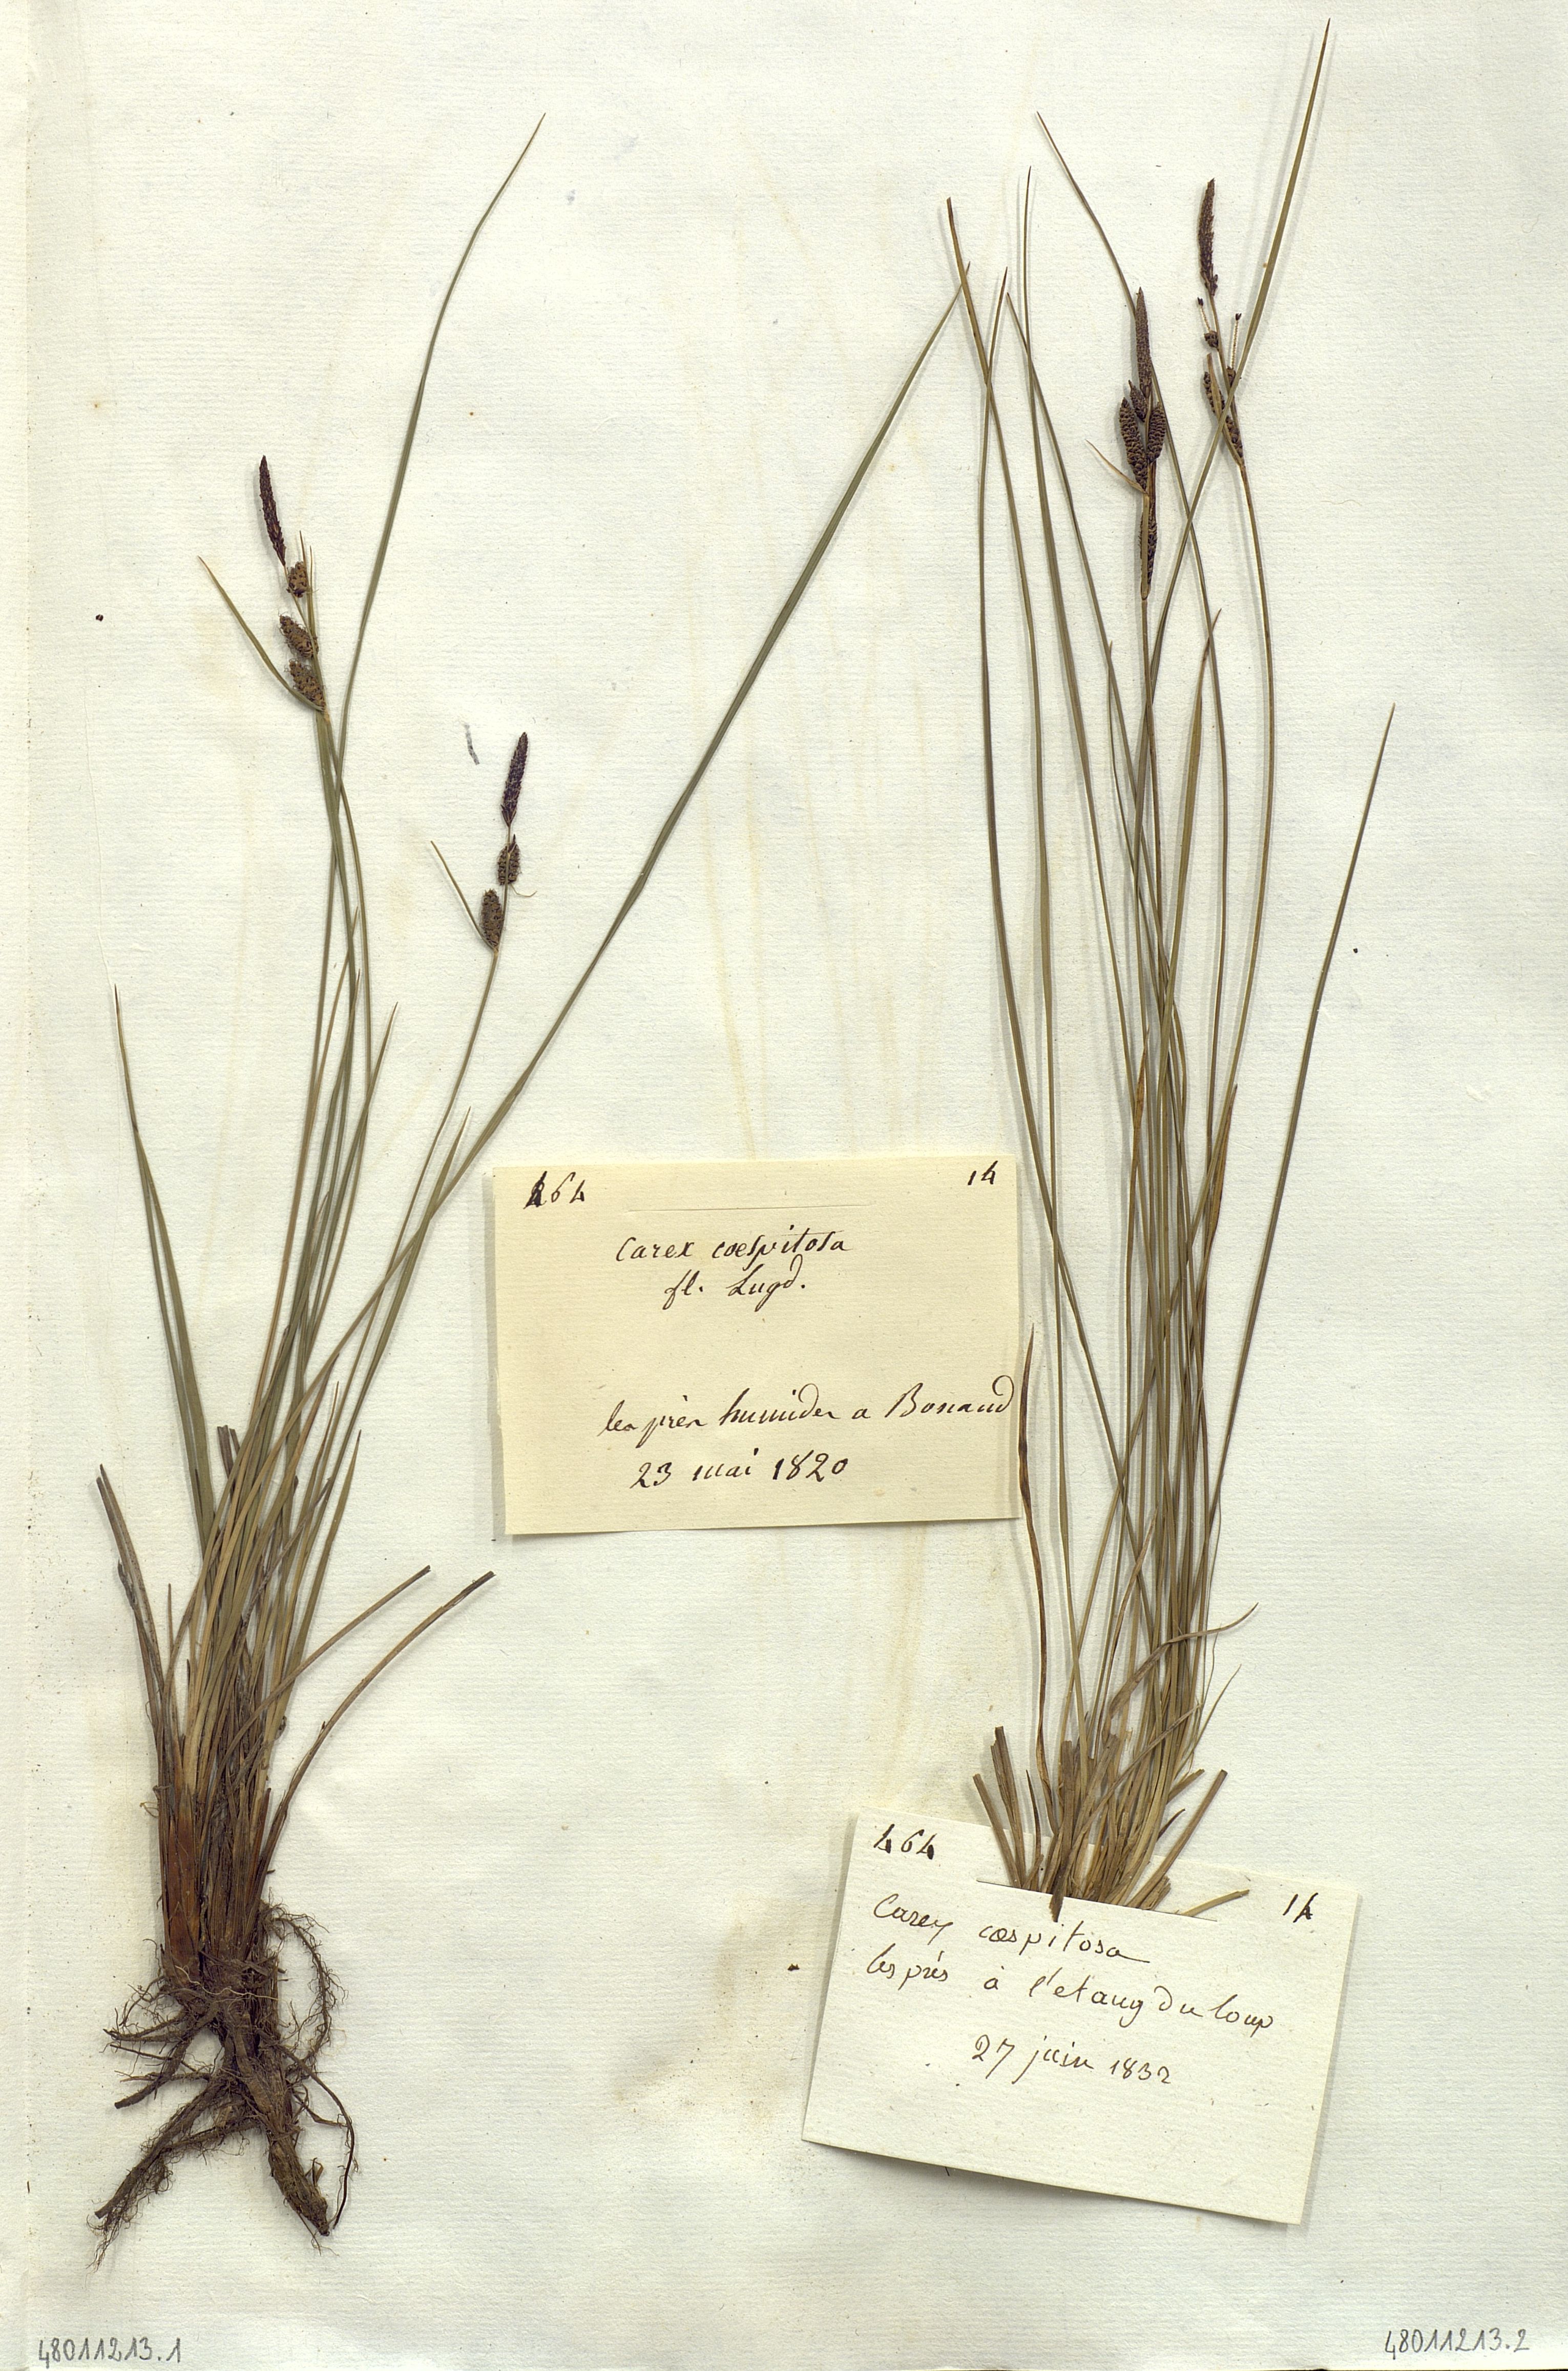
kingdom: Plantae
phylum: Tracheophyta
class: Liliopsida
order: Poales
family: Cyperaceae
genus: Carex
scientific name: Carex caespitosa
